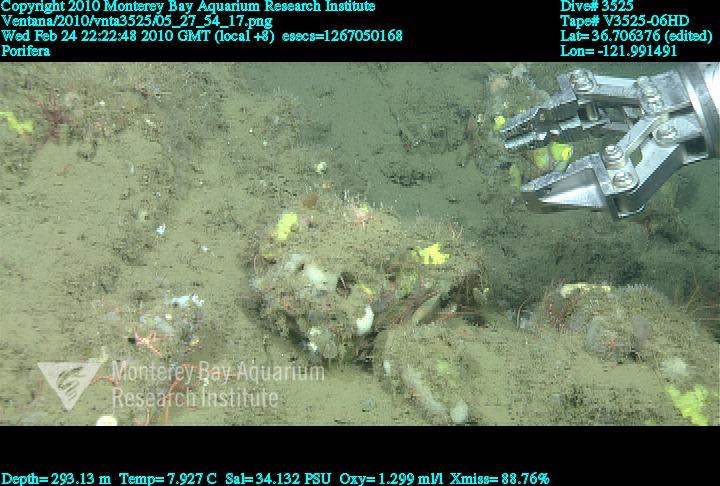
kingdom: Animalia
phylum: Porifera
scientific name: Porifera
